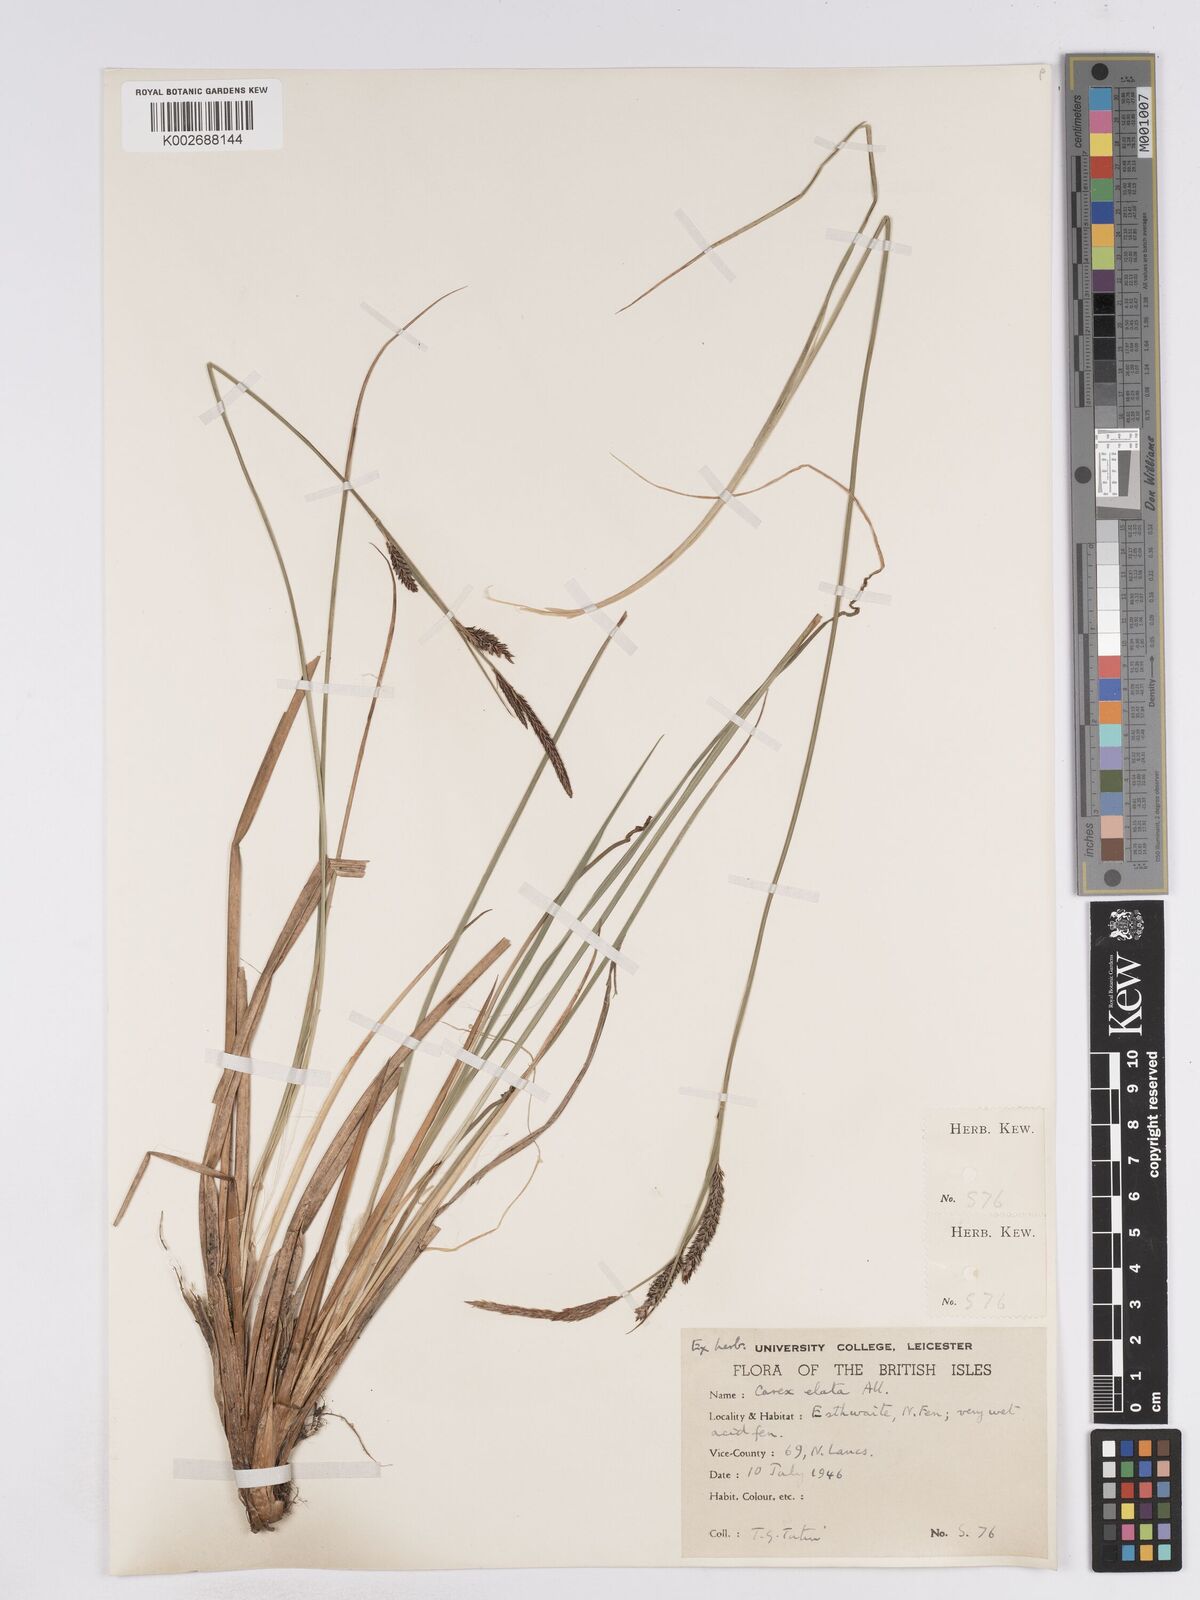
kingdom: Plantae
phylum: Tracheophyta
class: Liliopsida
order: Poales
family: Cyperaceae
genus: Carex
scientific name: Carex elata
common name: Tufted sedge
